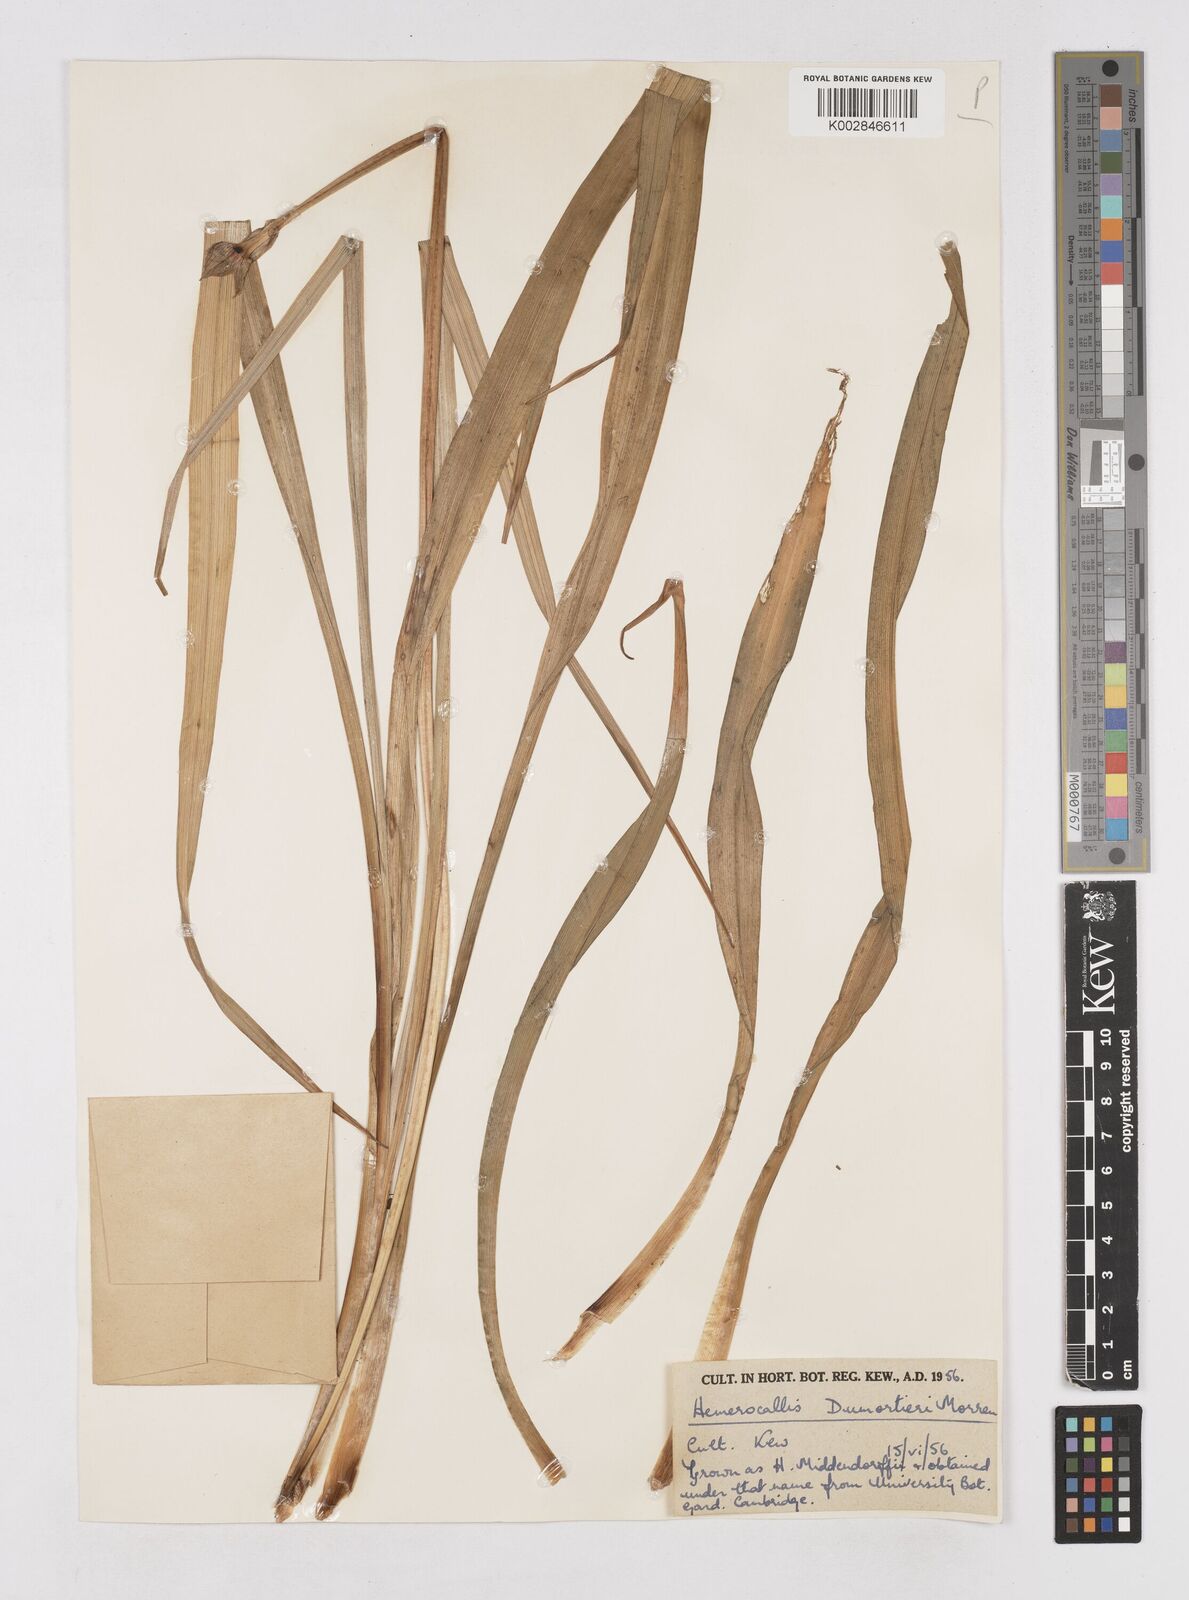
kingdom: Plantae
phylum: Tracheophyta
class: Liliopsida
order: Asparagales
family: Asphodelaceae
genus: Hemerocallis
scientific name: Hemerocallis dumortieri
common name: Dumortier's day-lily
